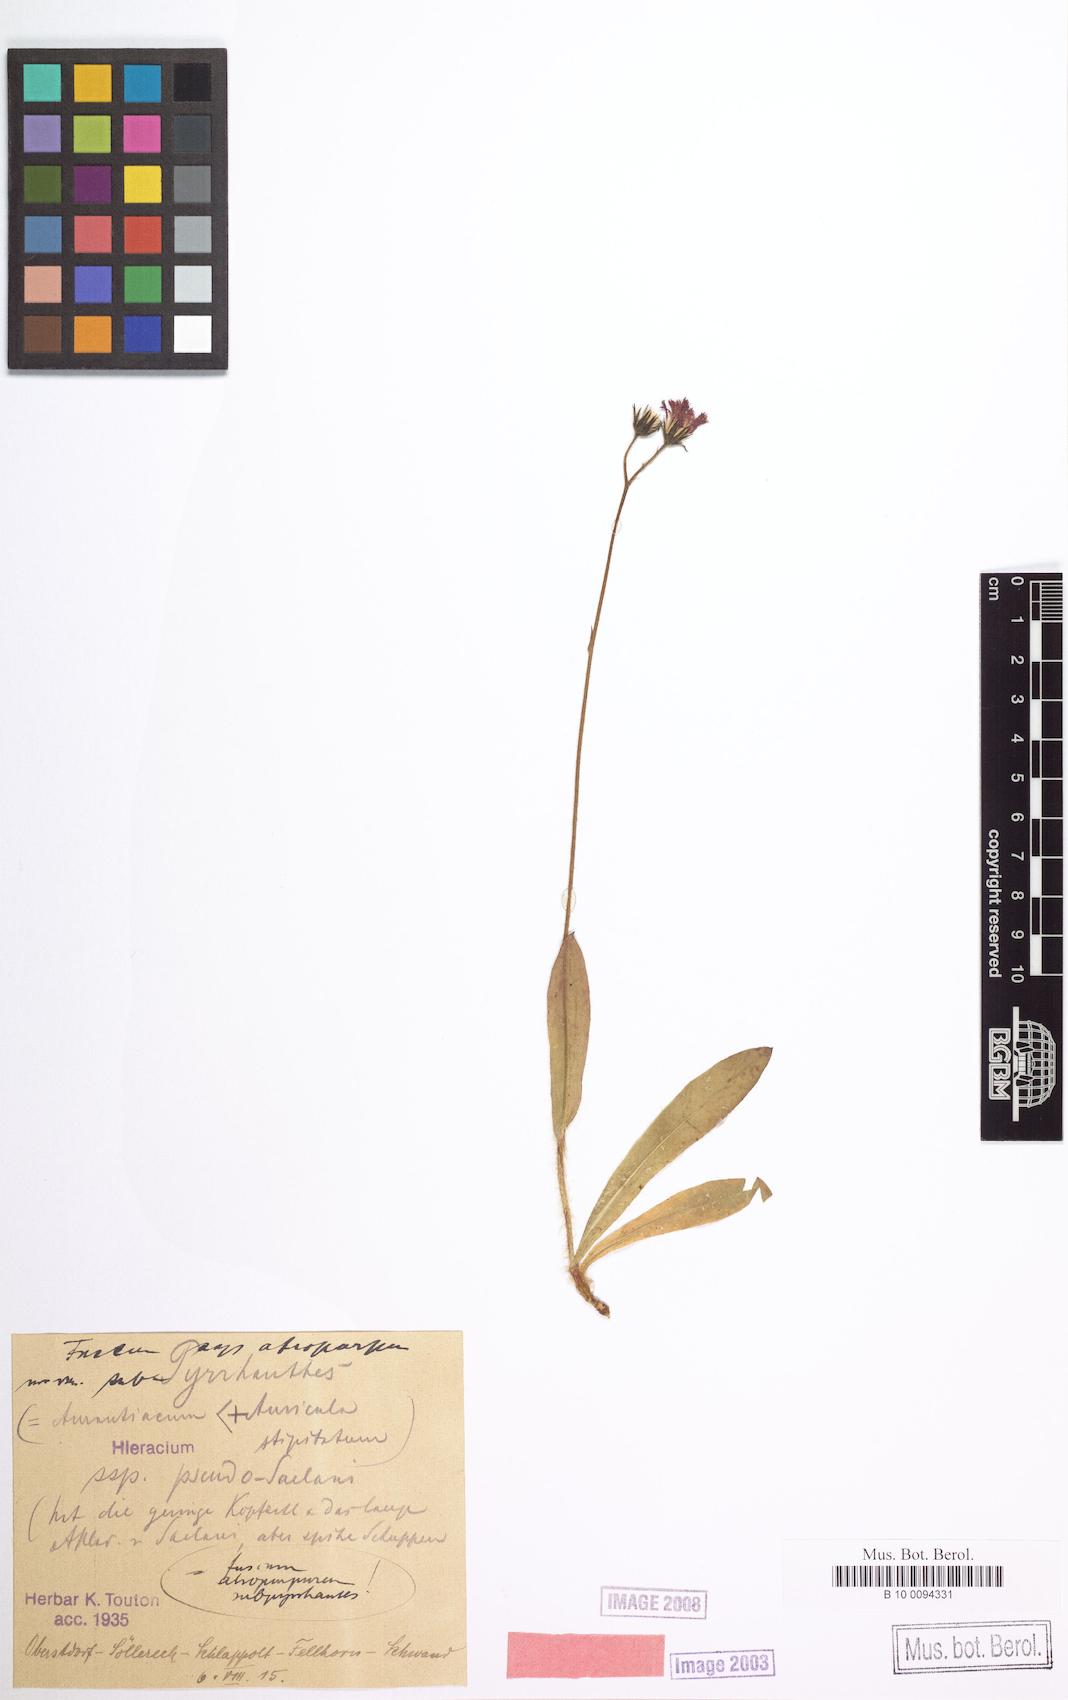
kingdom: Plantae
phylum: Tracheophyta
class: Magnoliopsida
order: Asterales
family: Asteraceae
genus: Hieracium
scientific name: Hieracium fuscum
